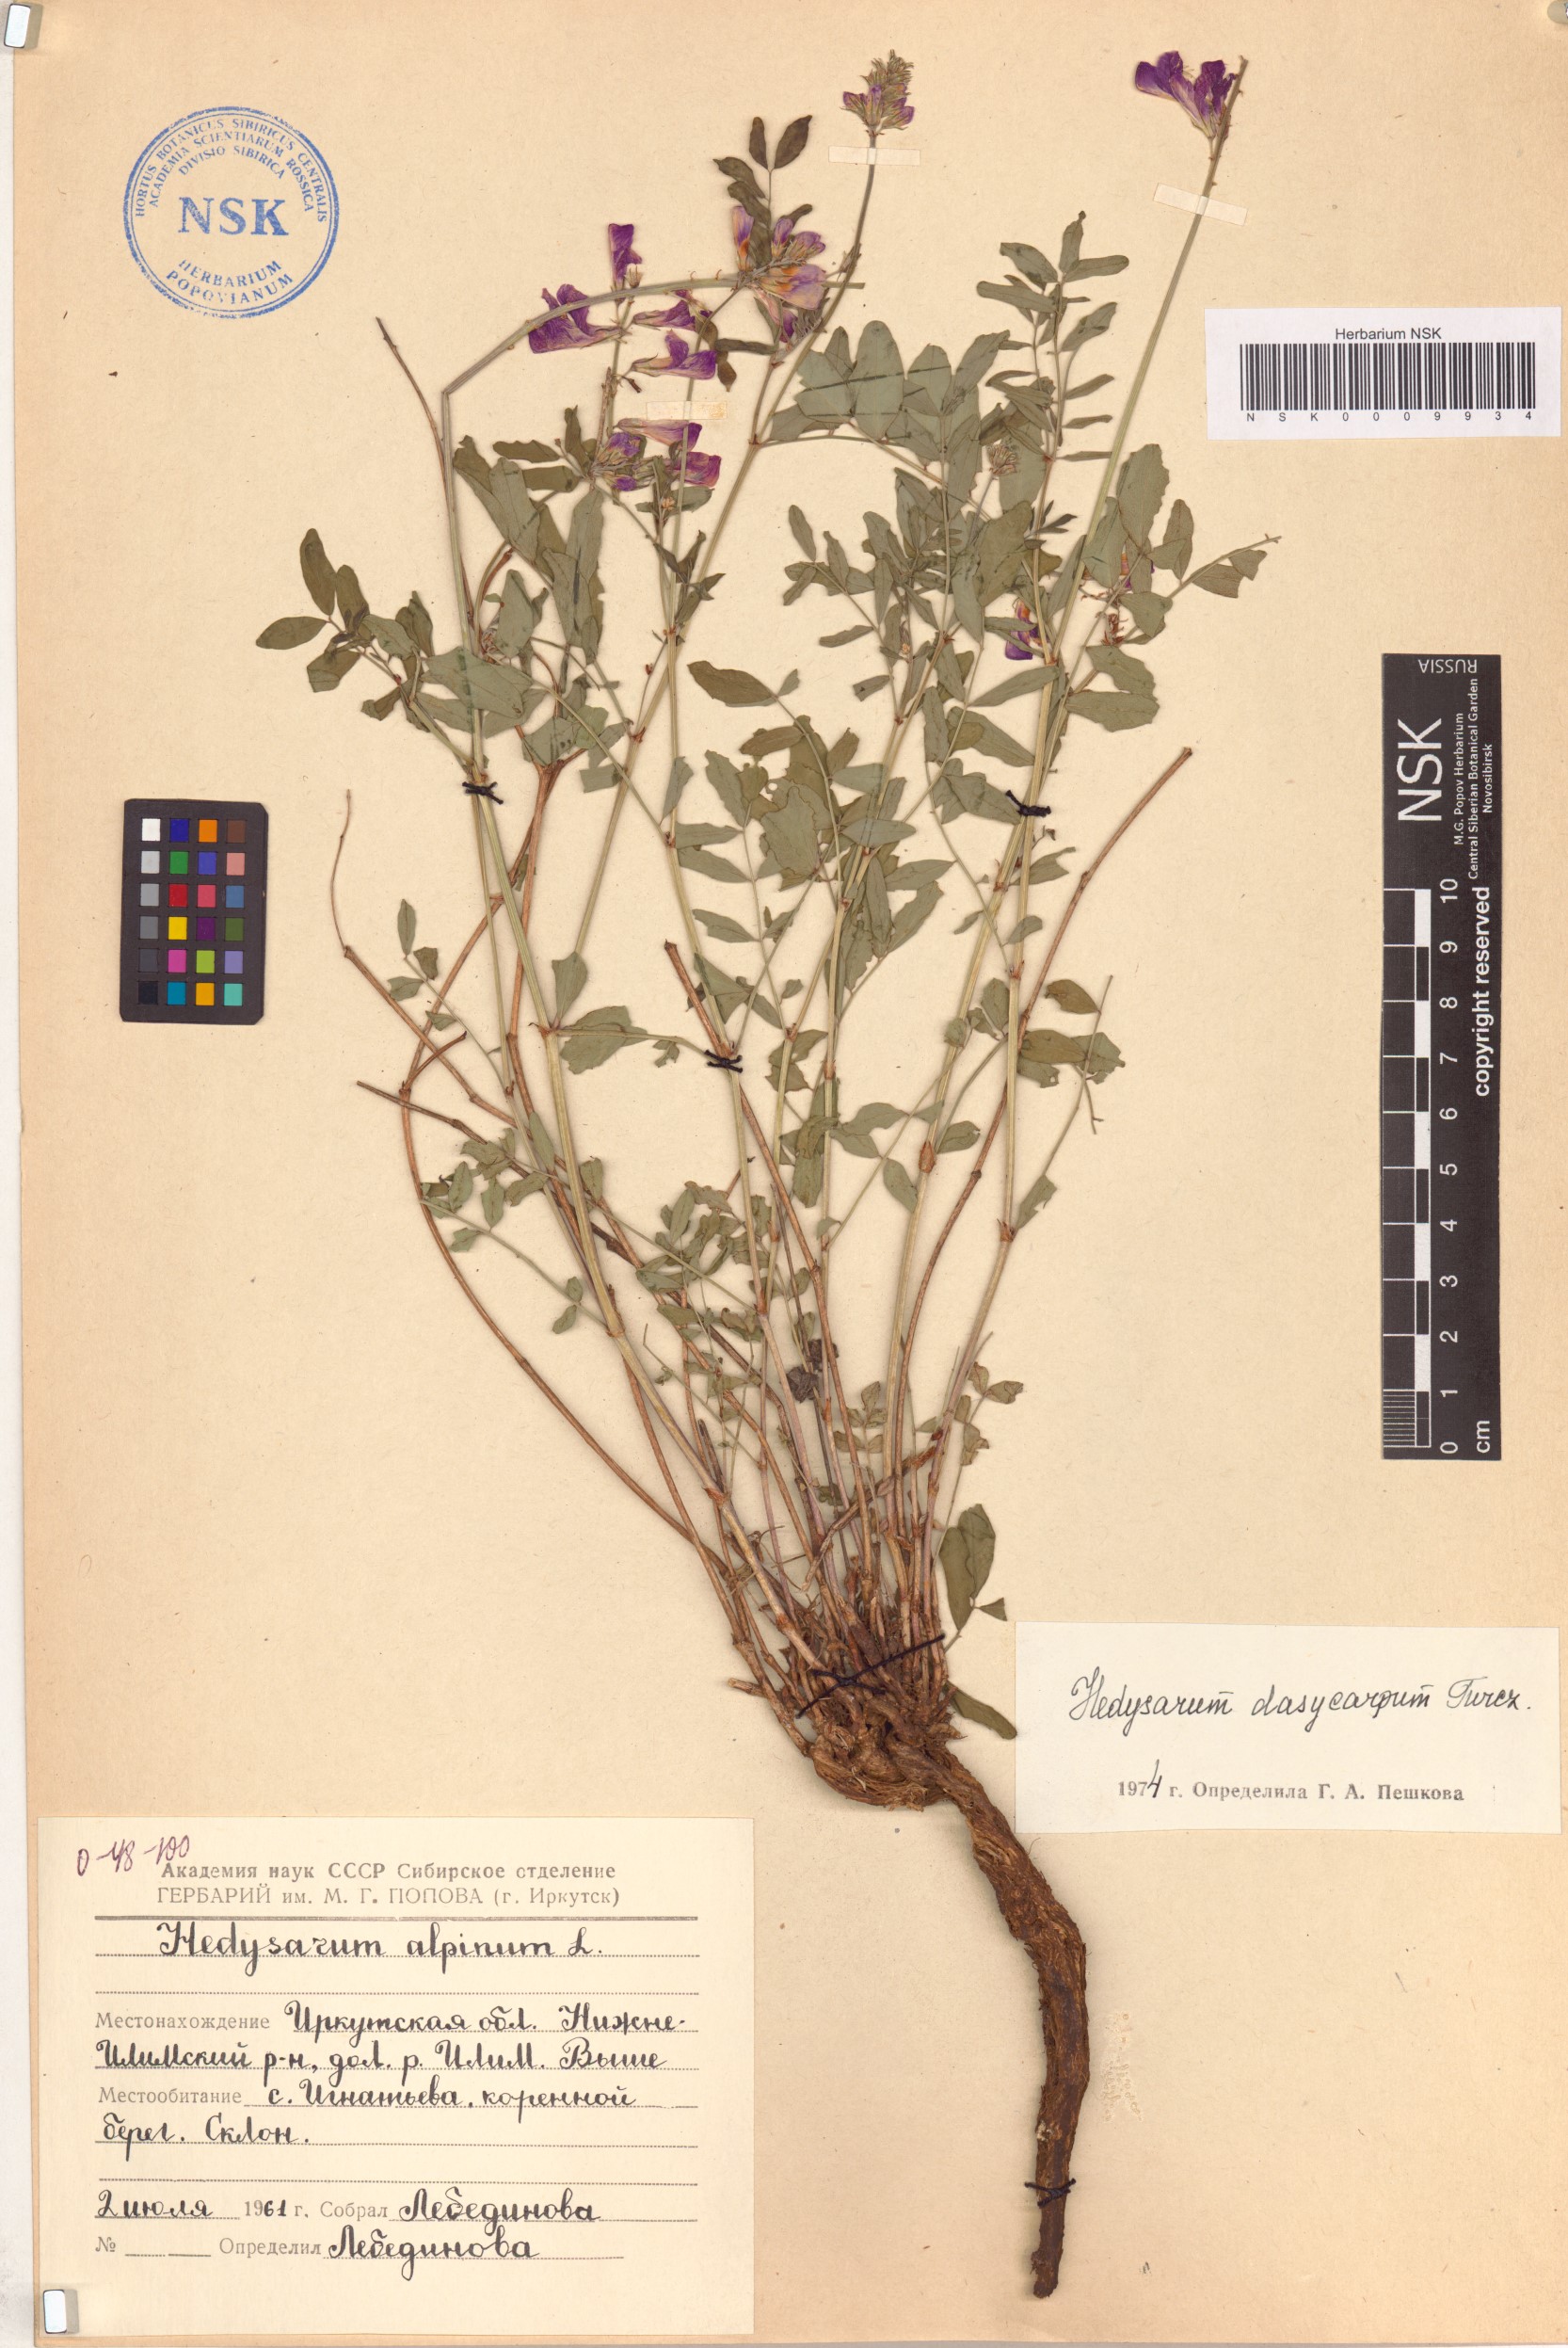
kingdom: Plantae
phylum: Tracheophyta
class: Magnoliopsida
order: Fabales
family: Fabaceae
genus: Hedysarum
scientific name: Hedysarum dasycarpum
